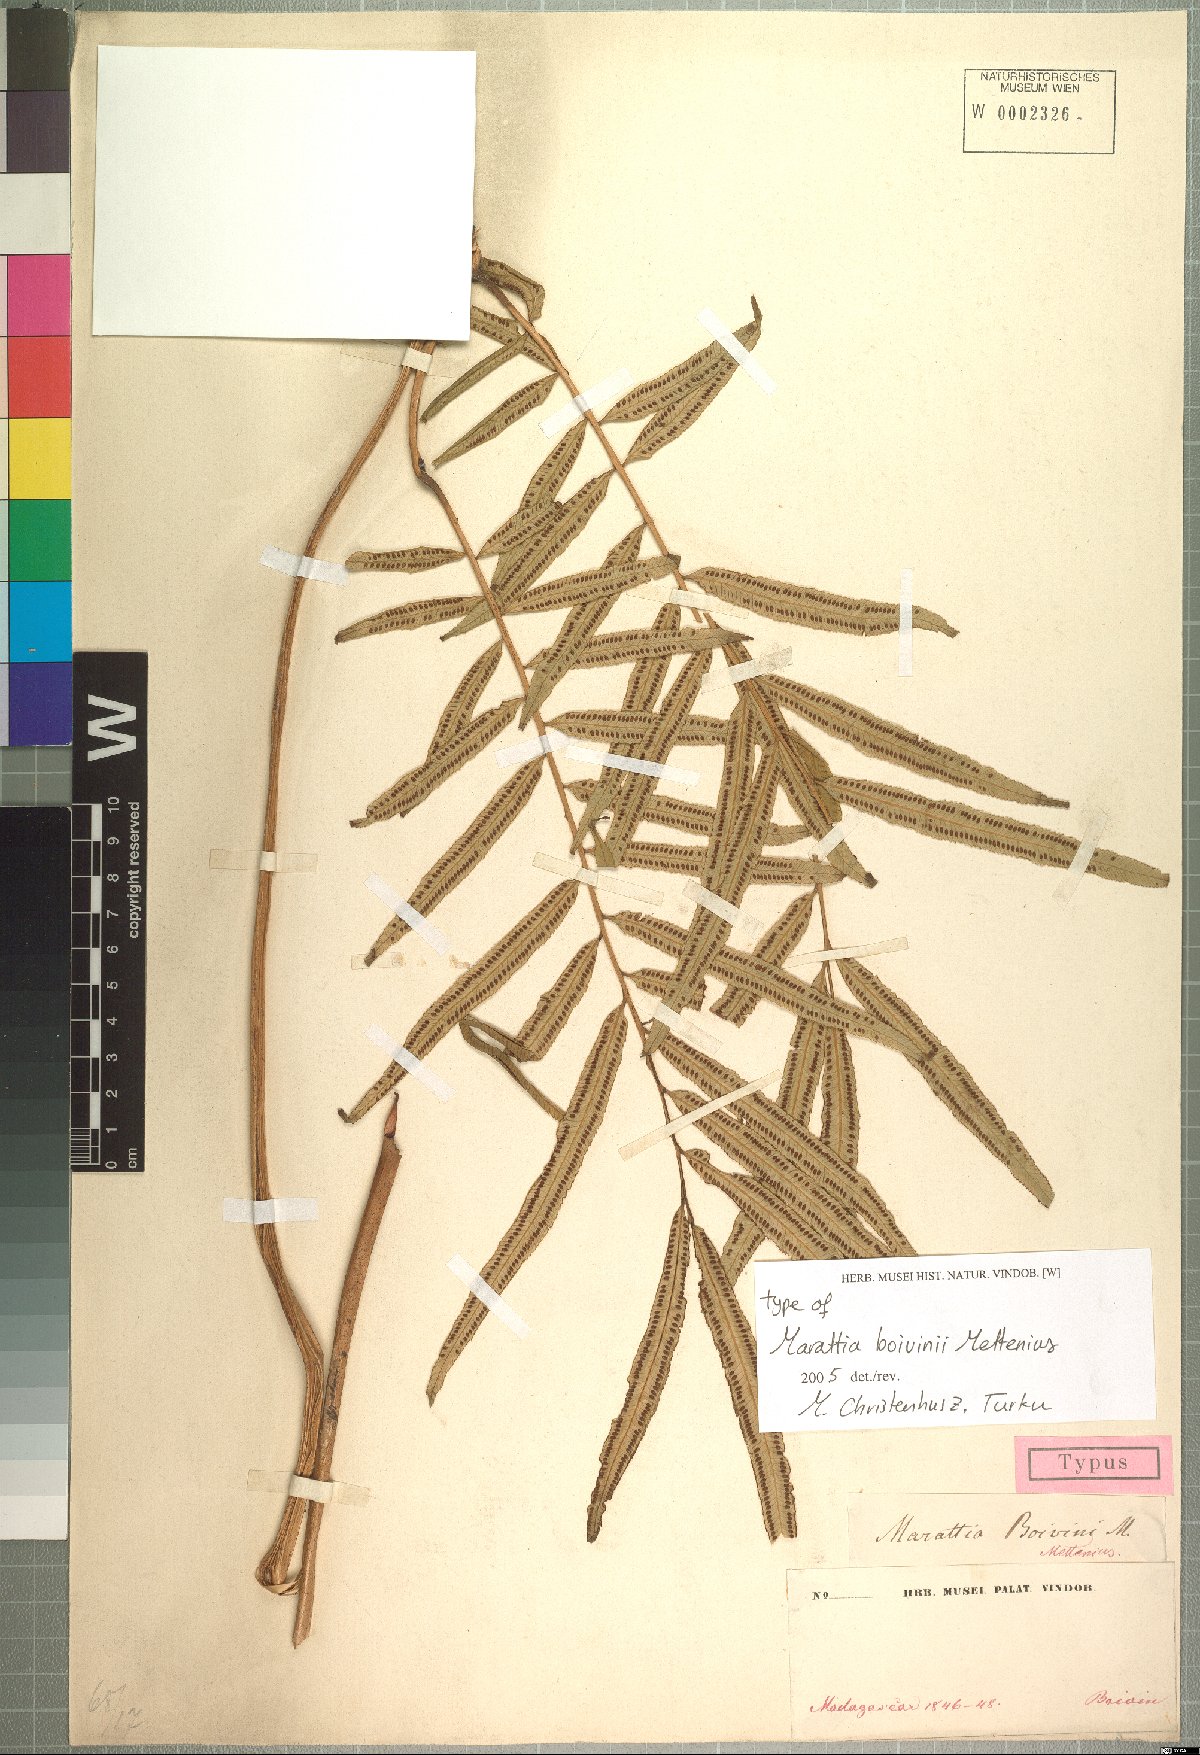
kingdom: Plantae
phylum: Tracheophyta
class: Polypodiopsida
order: Marattiales
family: Marattiaceae
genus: Ptisana
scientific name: Ptisana boivinii
